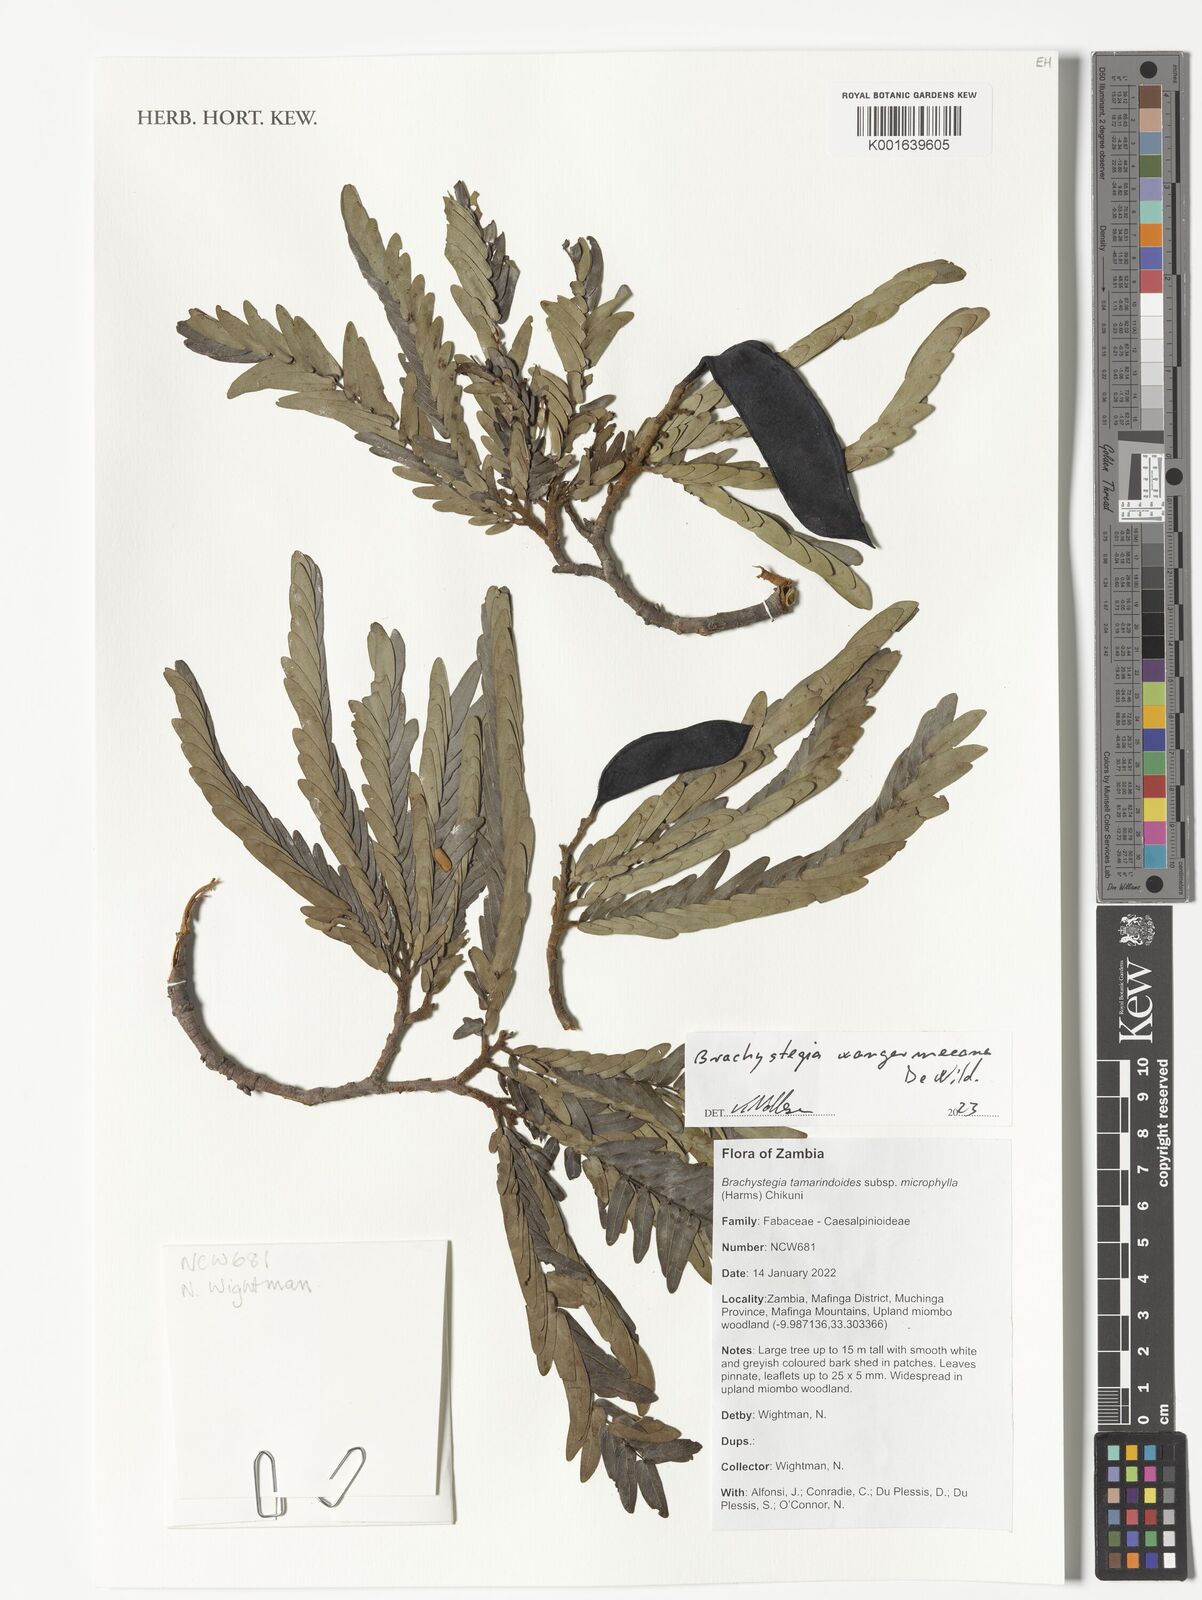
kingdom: Plantae
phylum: Tracheophyta
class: Magnoliopsida
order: Fabales
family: Fabaceae
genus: Brachystegia
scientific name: Brachystegia tamarindoides
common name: Mountain acacia
